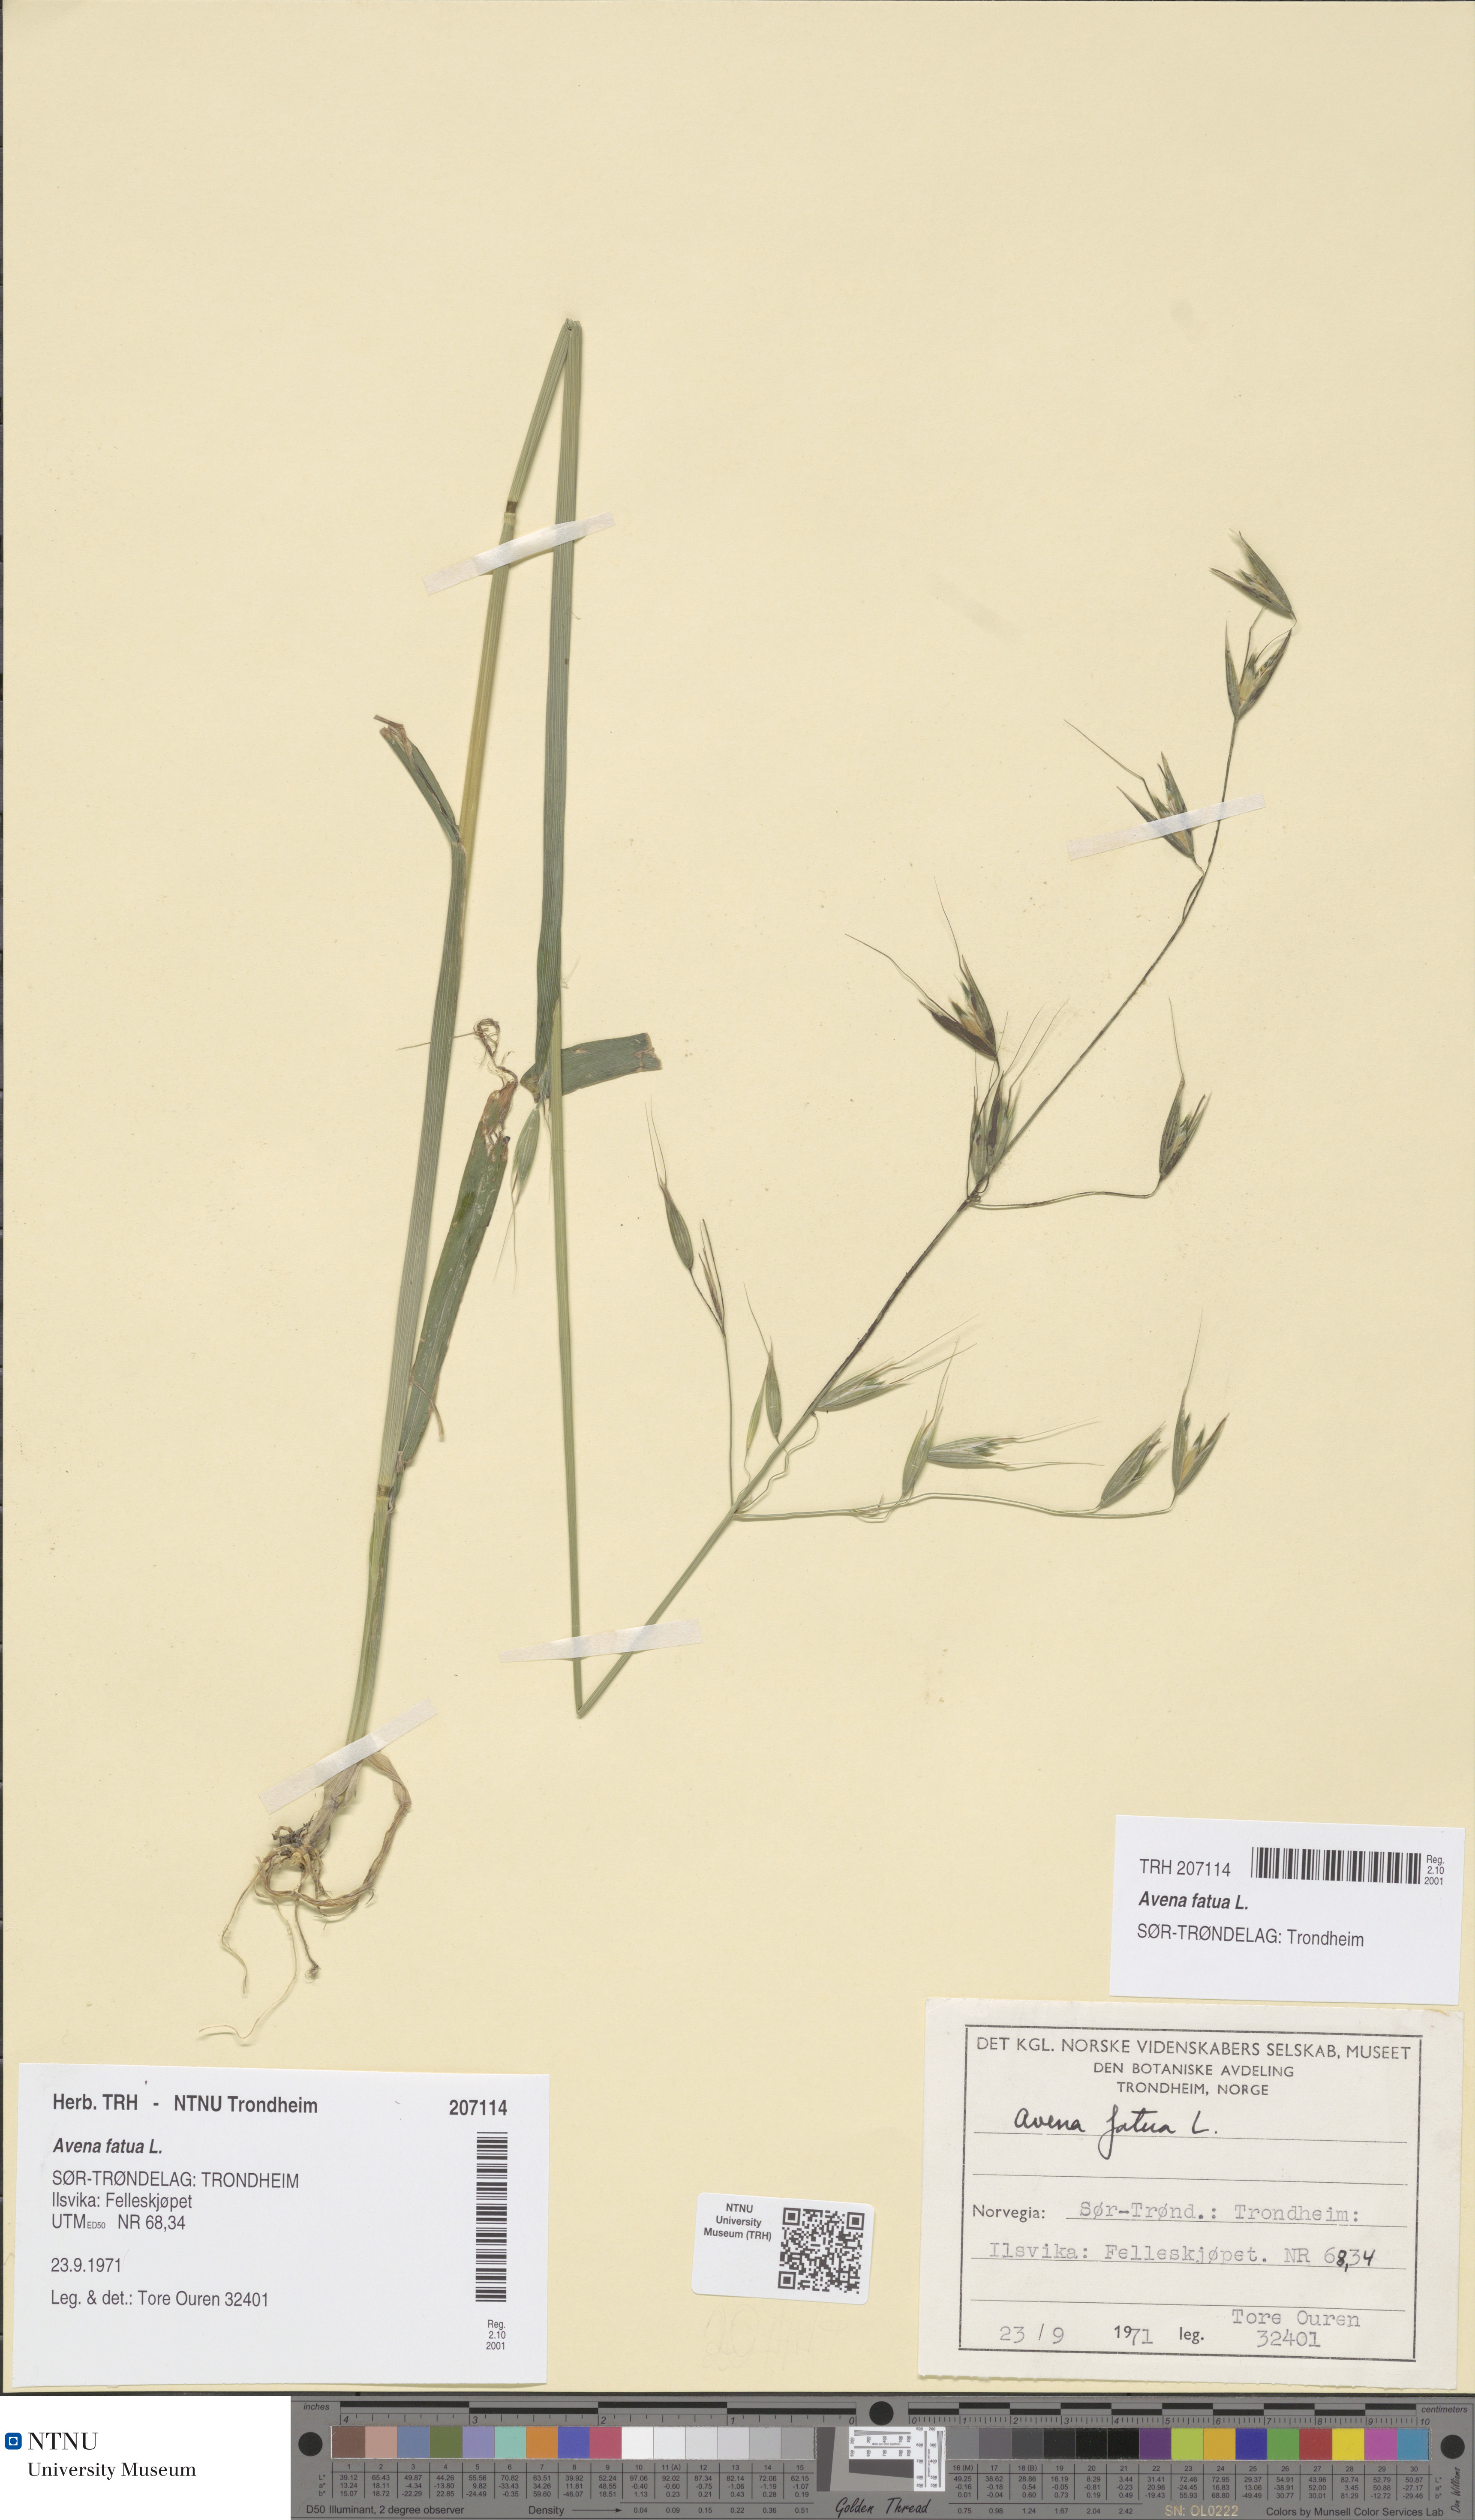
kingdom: Plantae
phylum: Tracheophyta
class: Liliopsida
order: Poales
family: Poaceae
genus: Avena
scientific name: Avena fatua
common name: Wild oat
